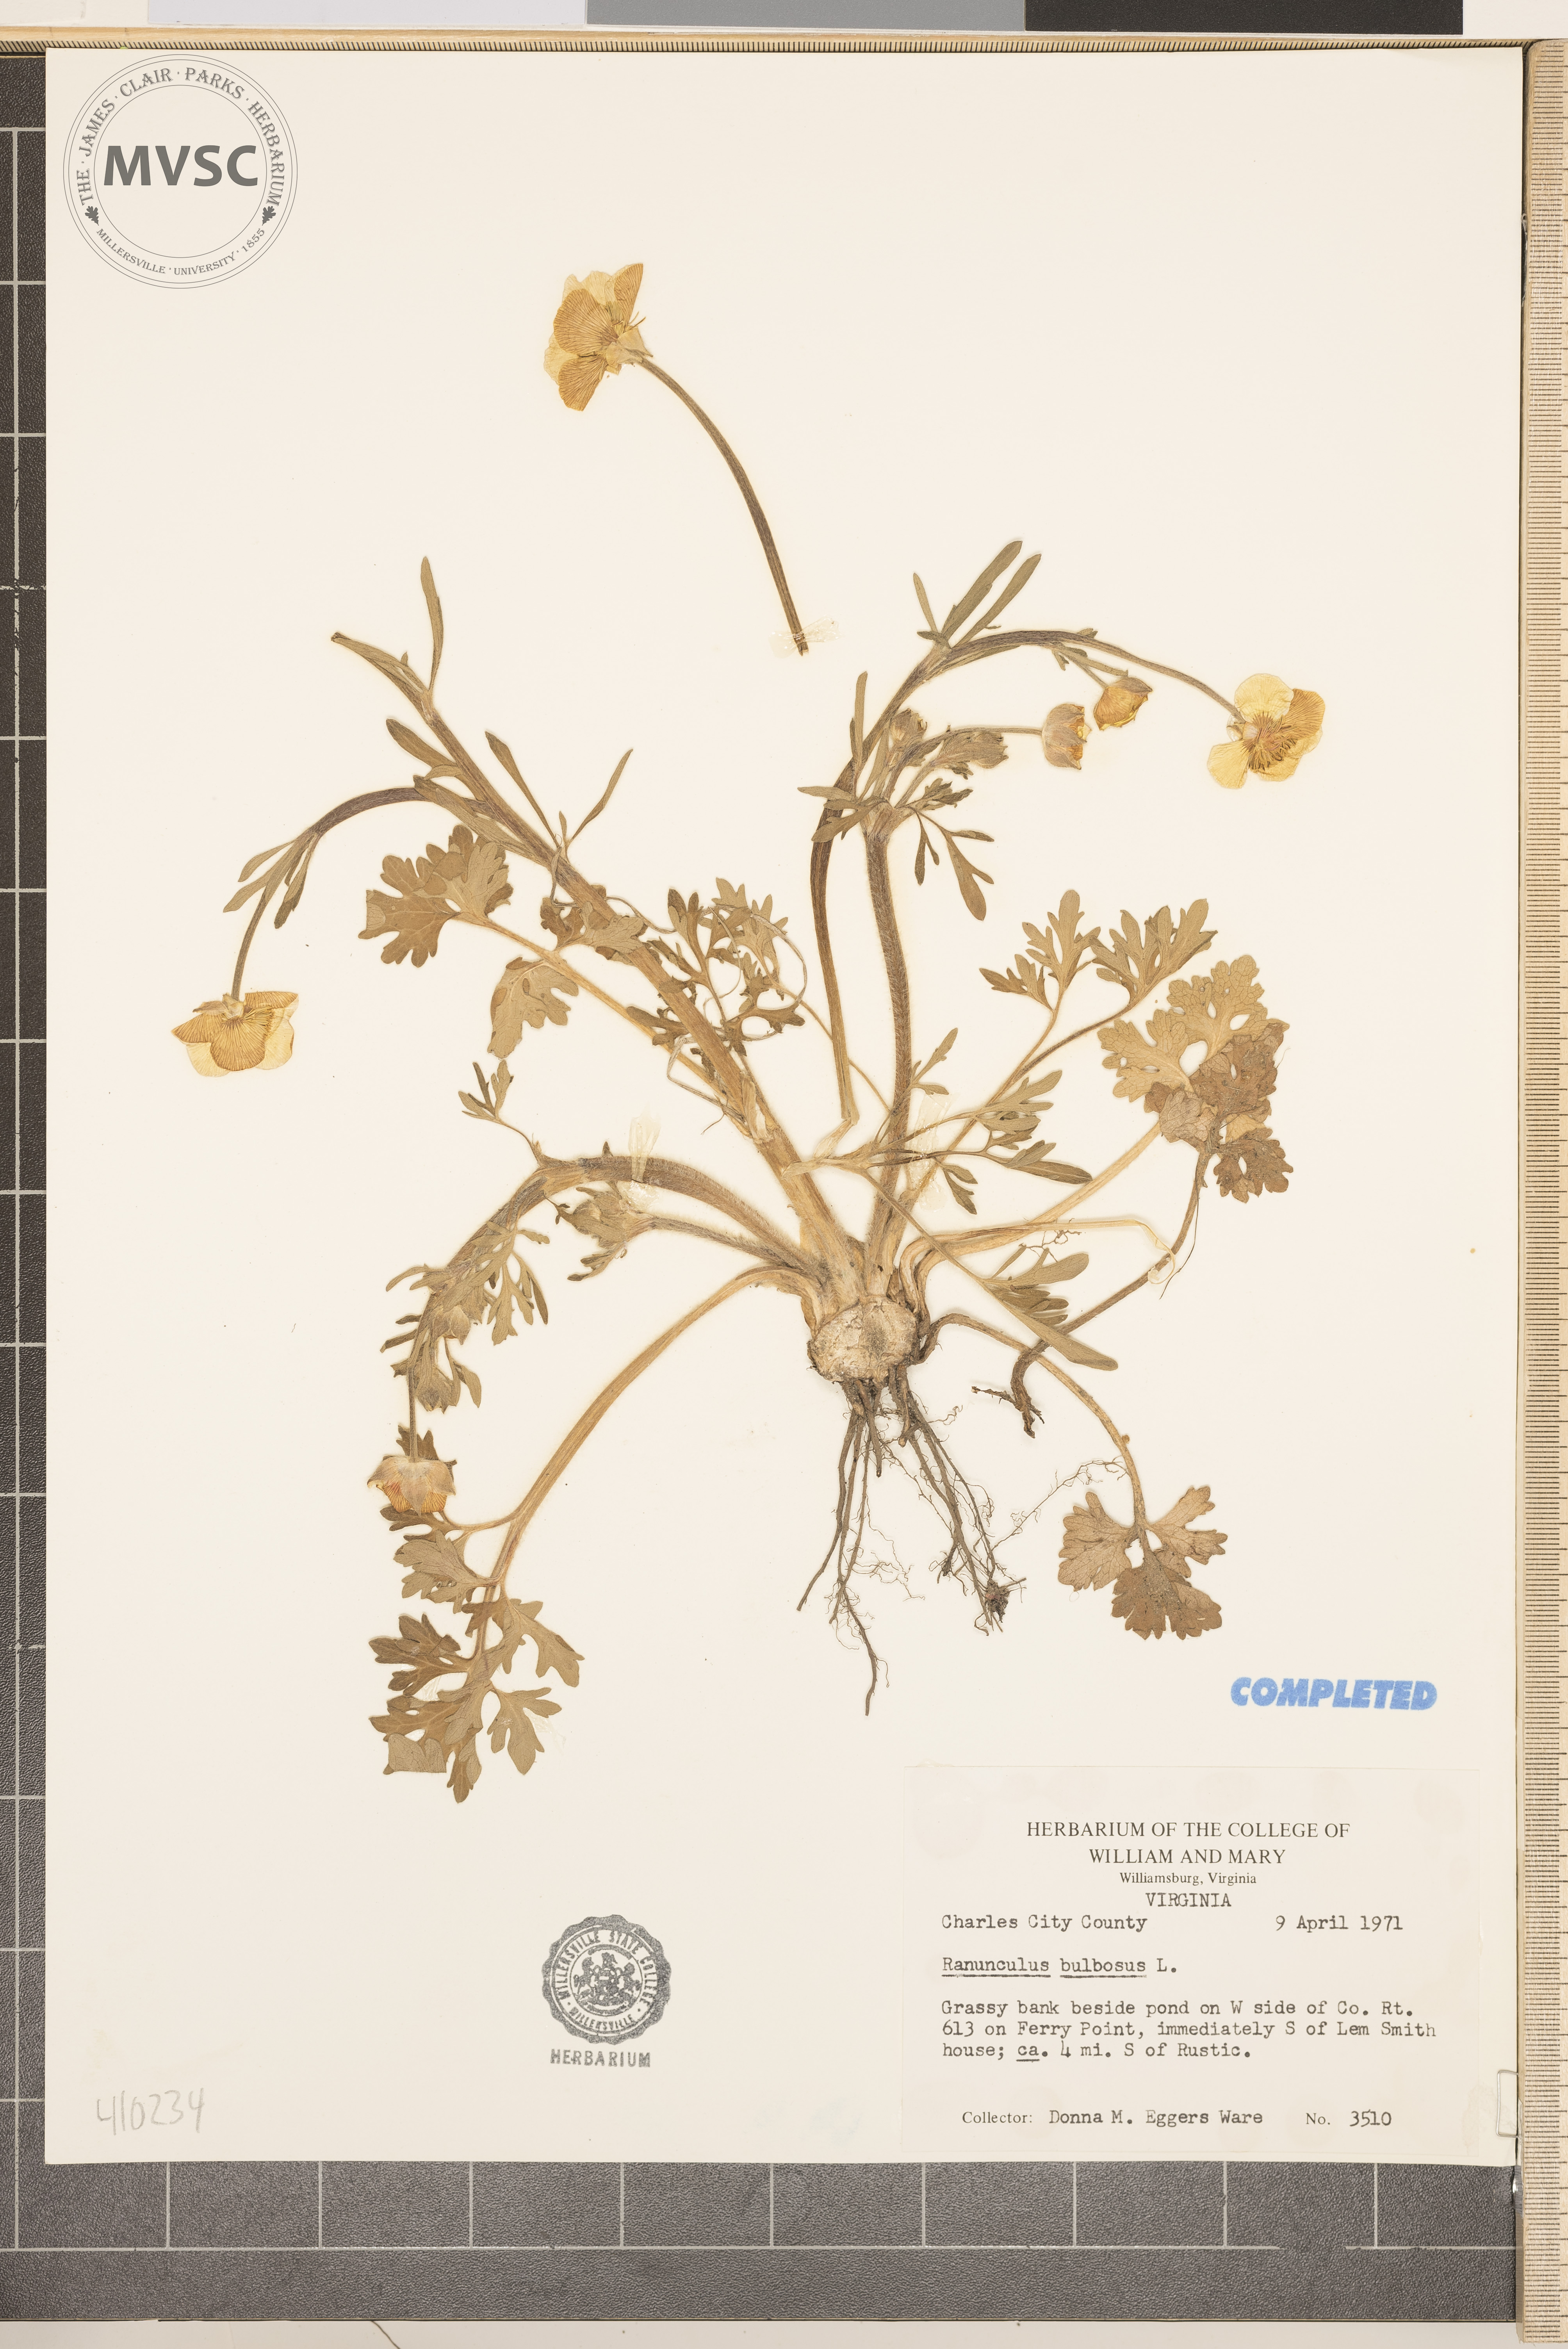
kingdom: Plantae
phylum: Tracheophyta
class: Magnoliopsida
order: Ranunculales
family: Ranunculaceae
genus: Ranunculus
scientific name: Ranunculus bulbosus
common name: Bulbous buttercup
